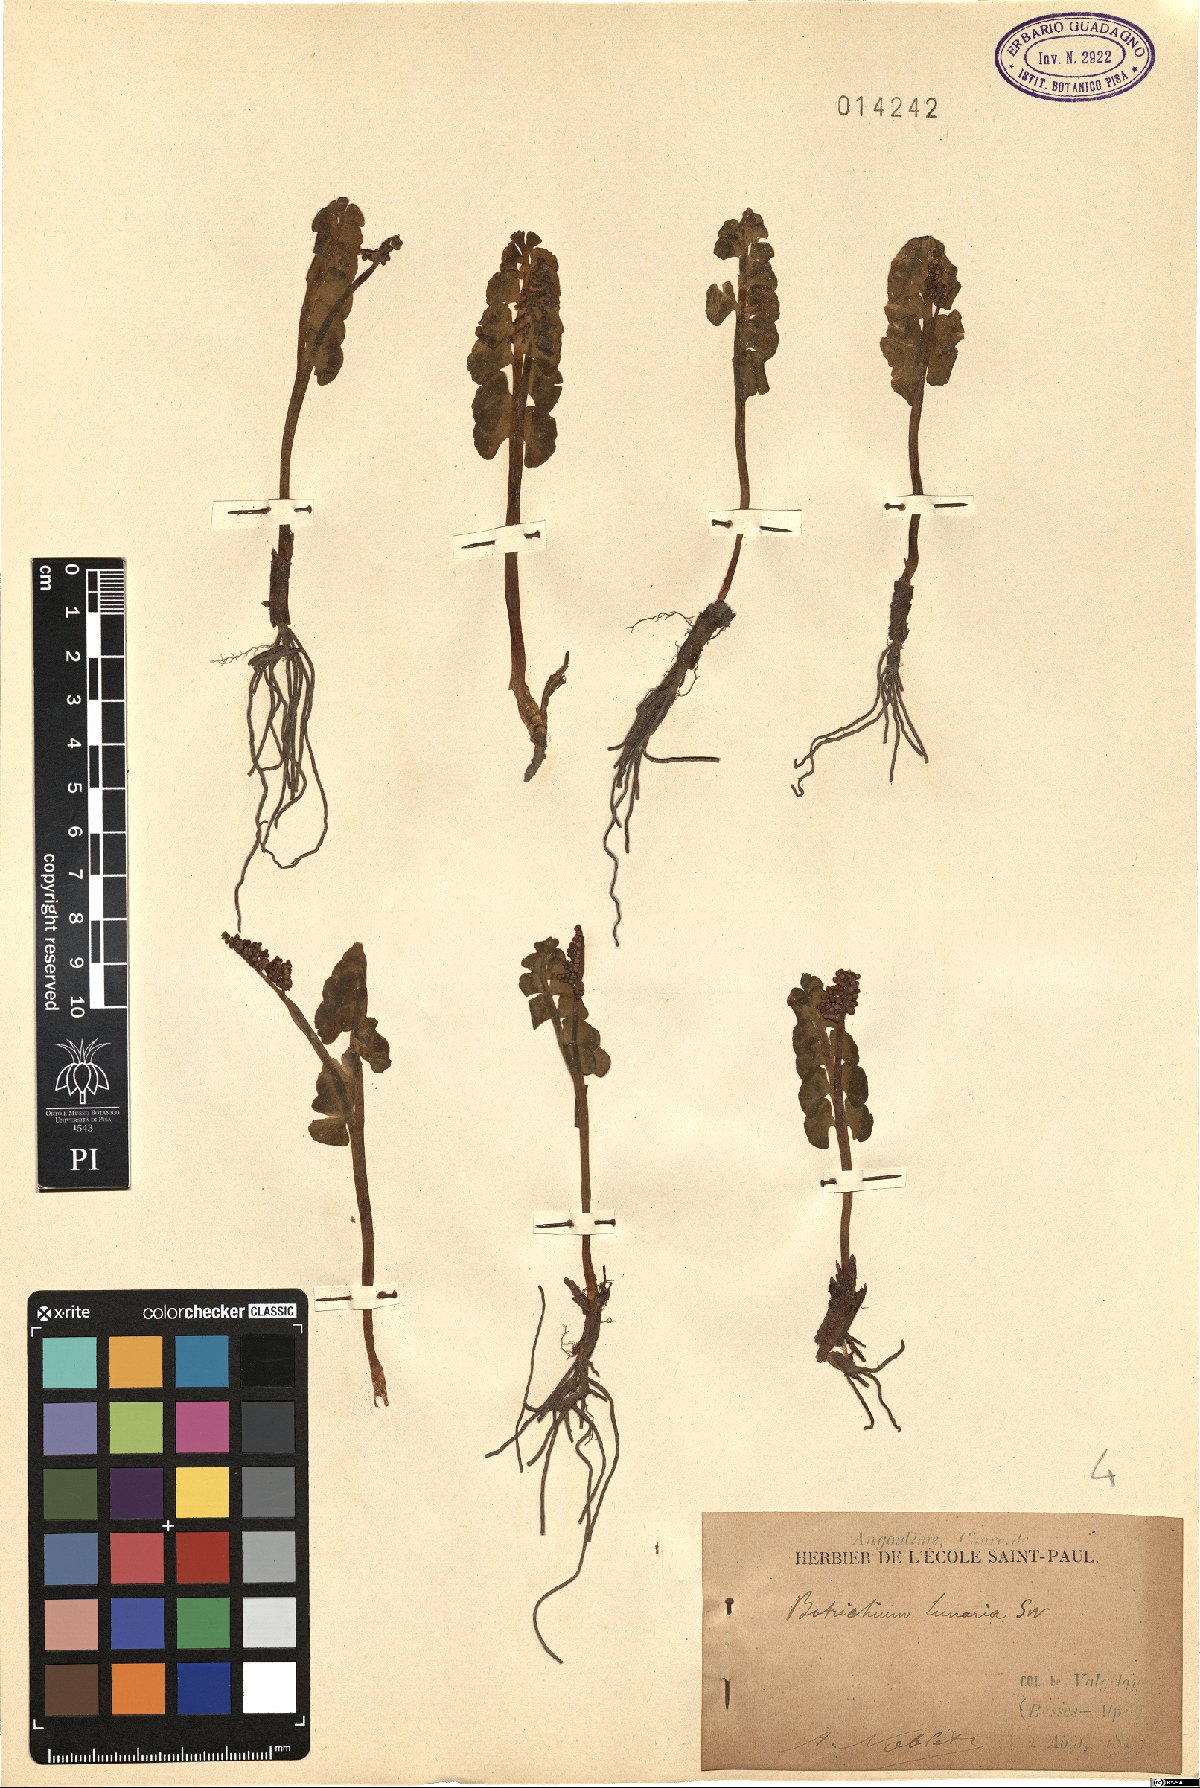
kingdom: Plantae
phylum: Tracheophyta
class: Polypodiopsida
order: Ophioglossales
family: Ophioglossaceae
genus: Botrychium
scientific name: Botrychium lunaria
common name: Moonwort
